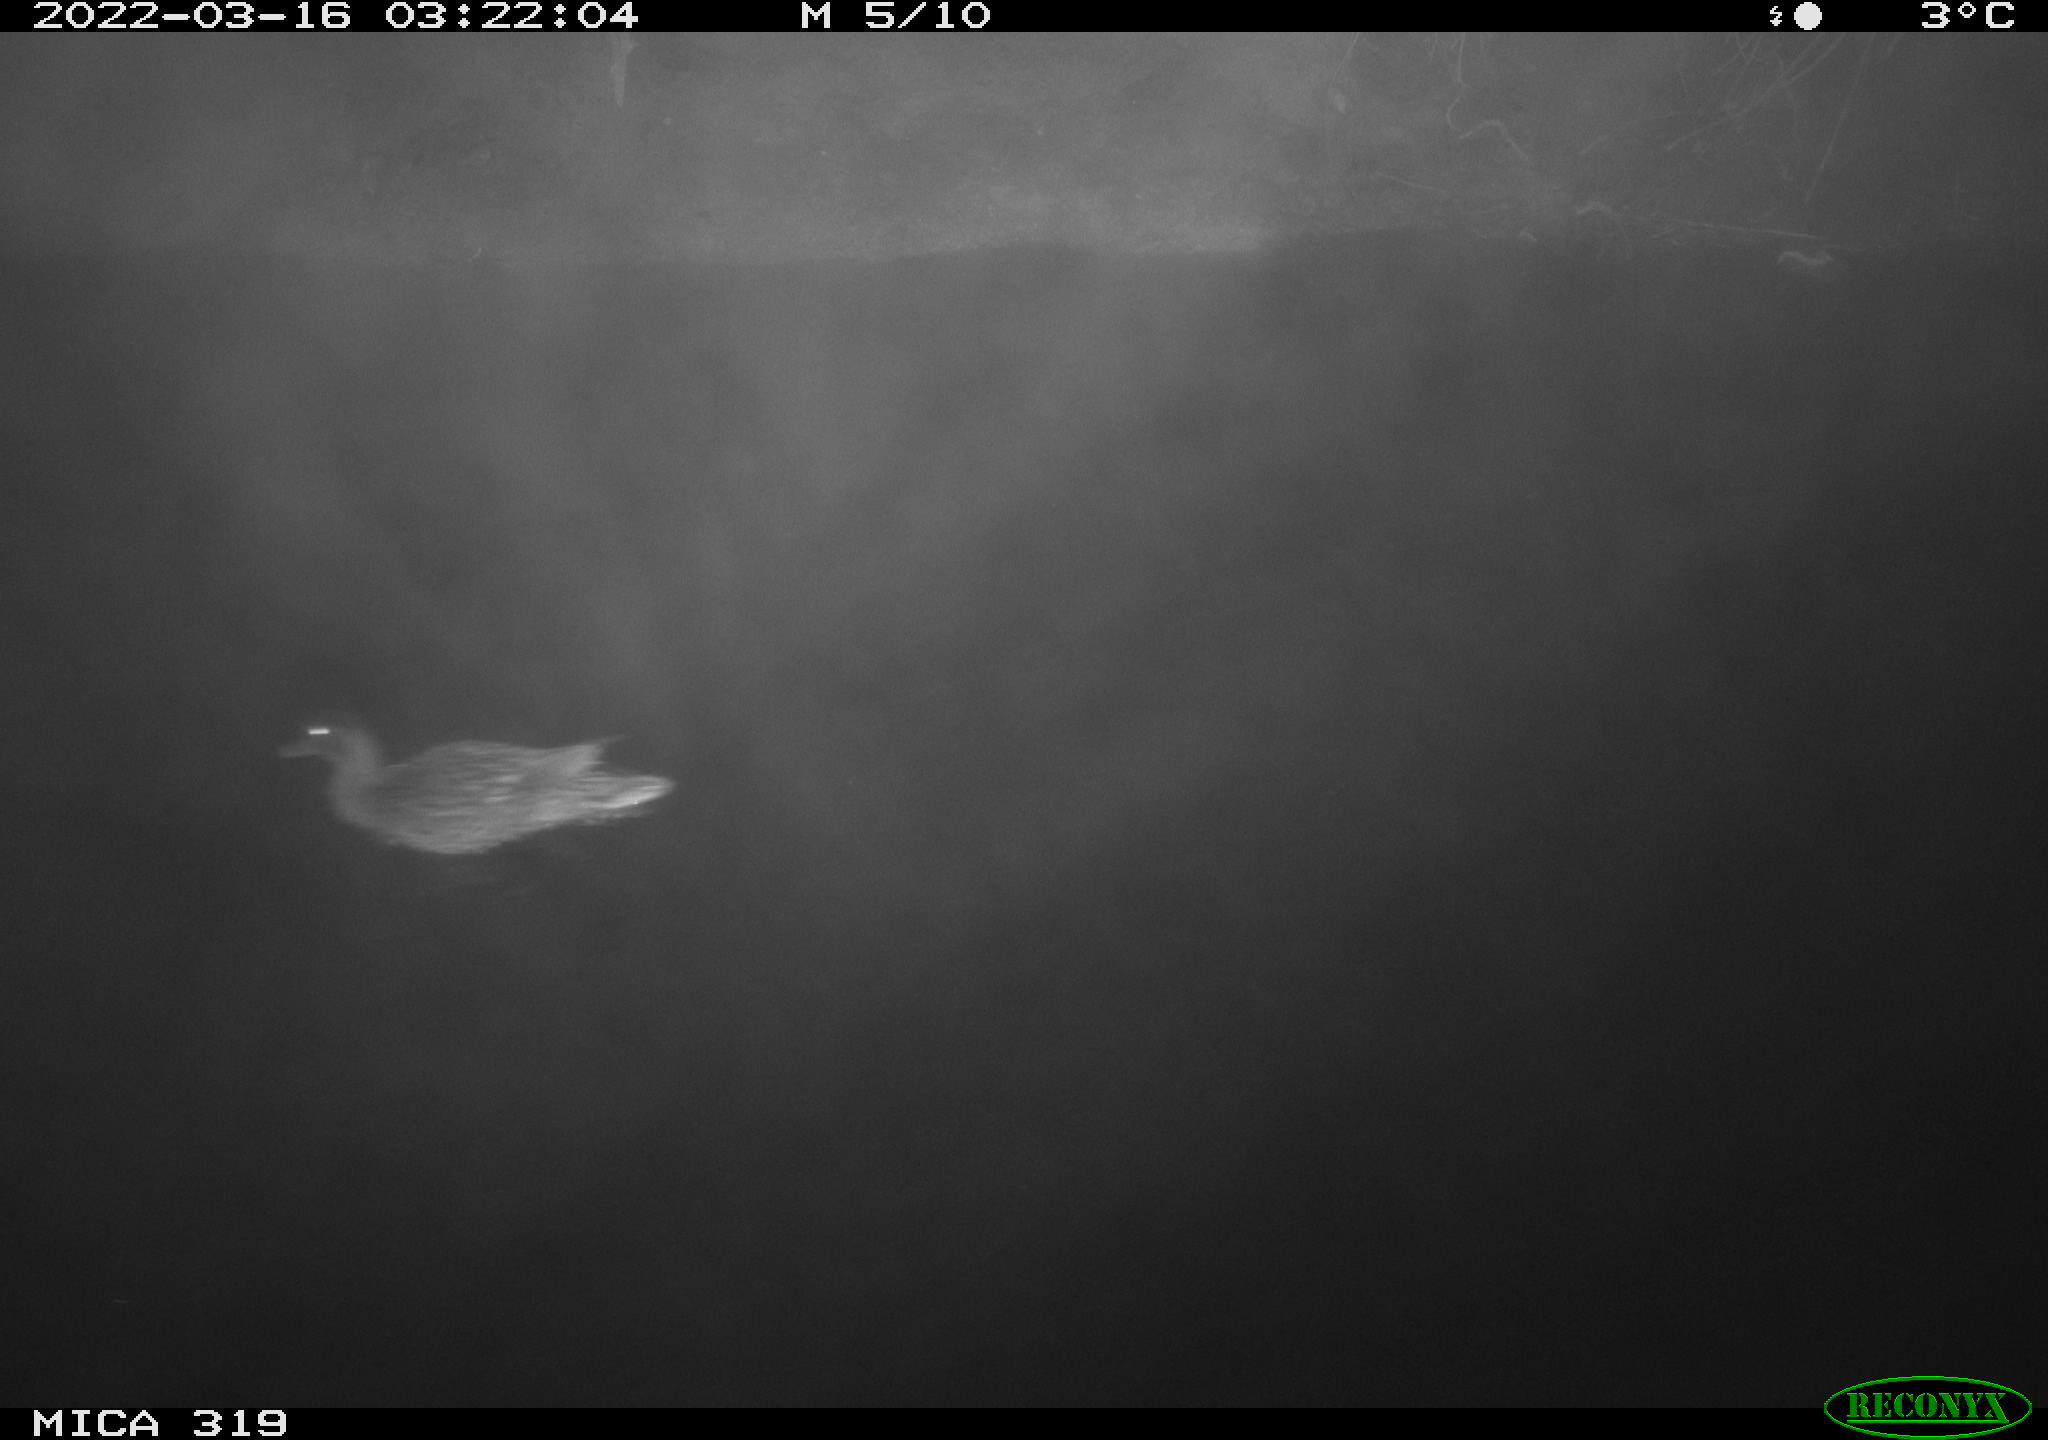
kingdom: Animalia
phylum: Chordata
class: Aves
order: Anseriformes
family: Anatidae
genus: Anas
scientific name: Anas platyrhynchos
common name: Mallard
